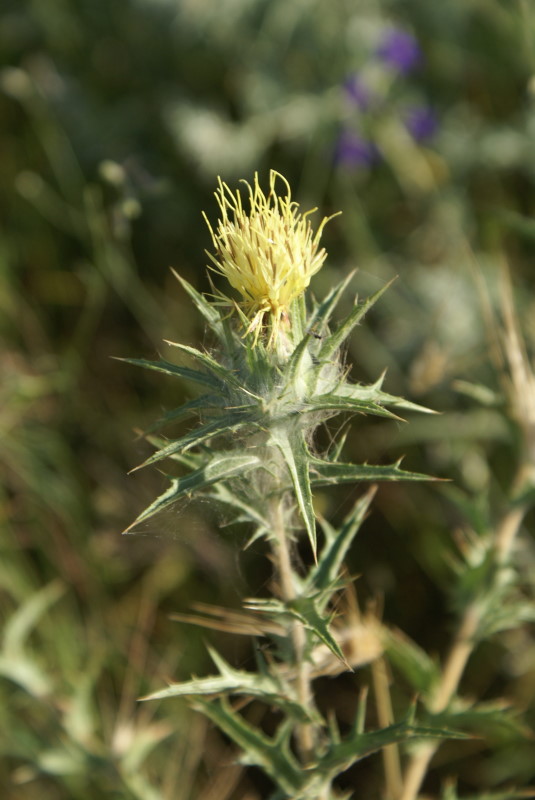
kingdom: Plantae
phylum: Tracheophyta
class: Magnoliopsida
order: Asterales
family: Asteraceae
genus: Carthamus
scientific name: Carthamus lanatus
